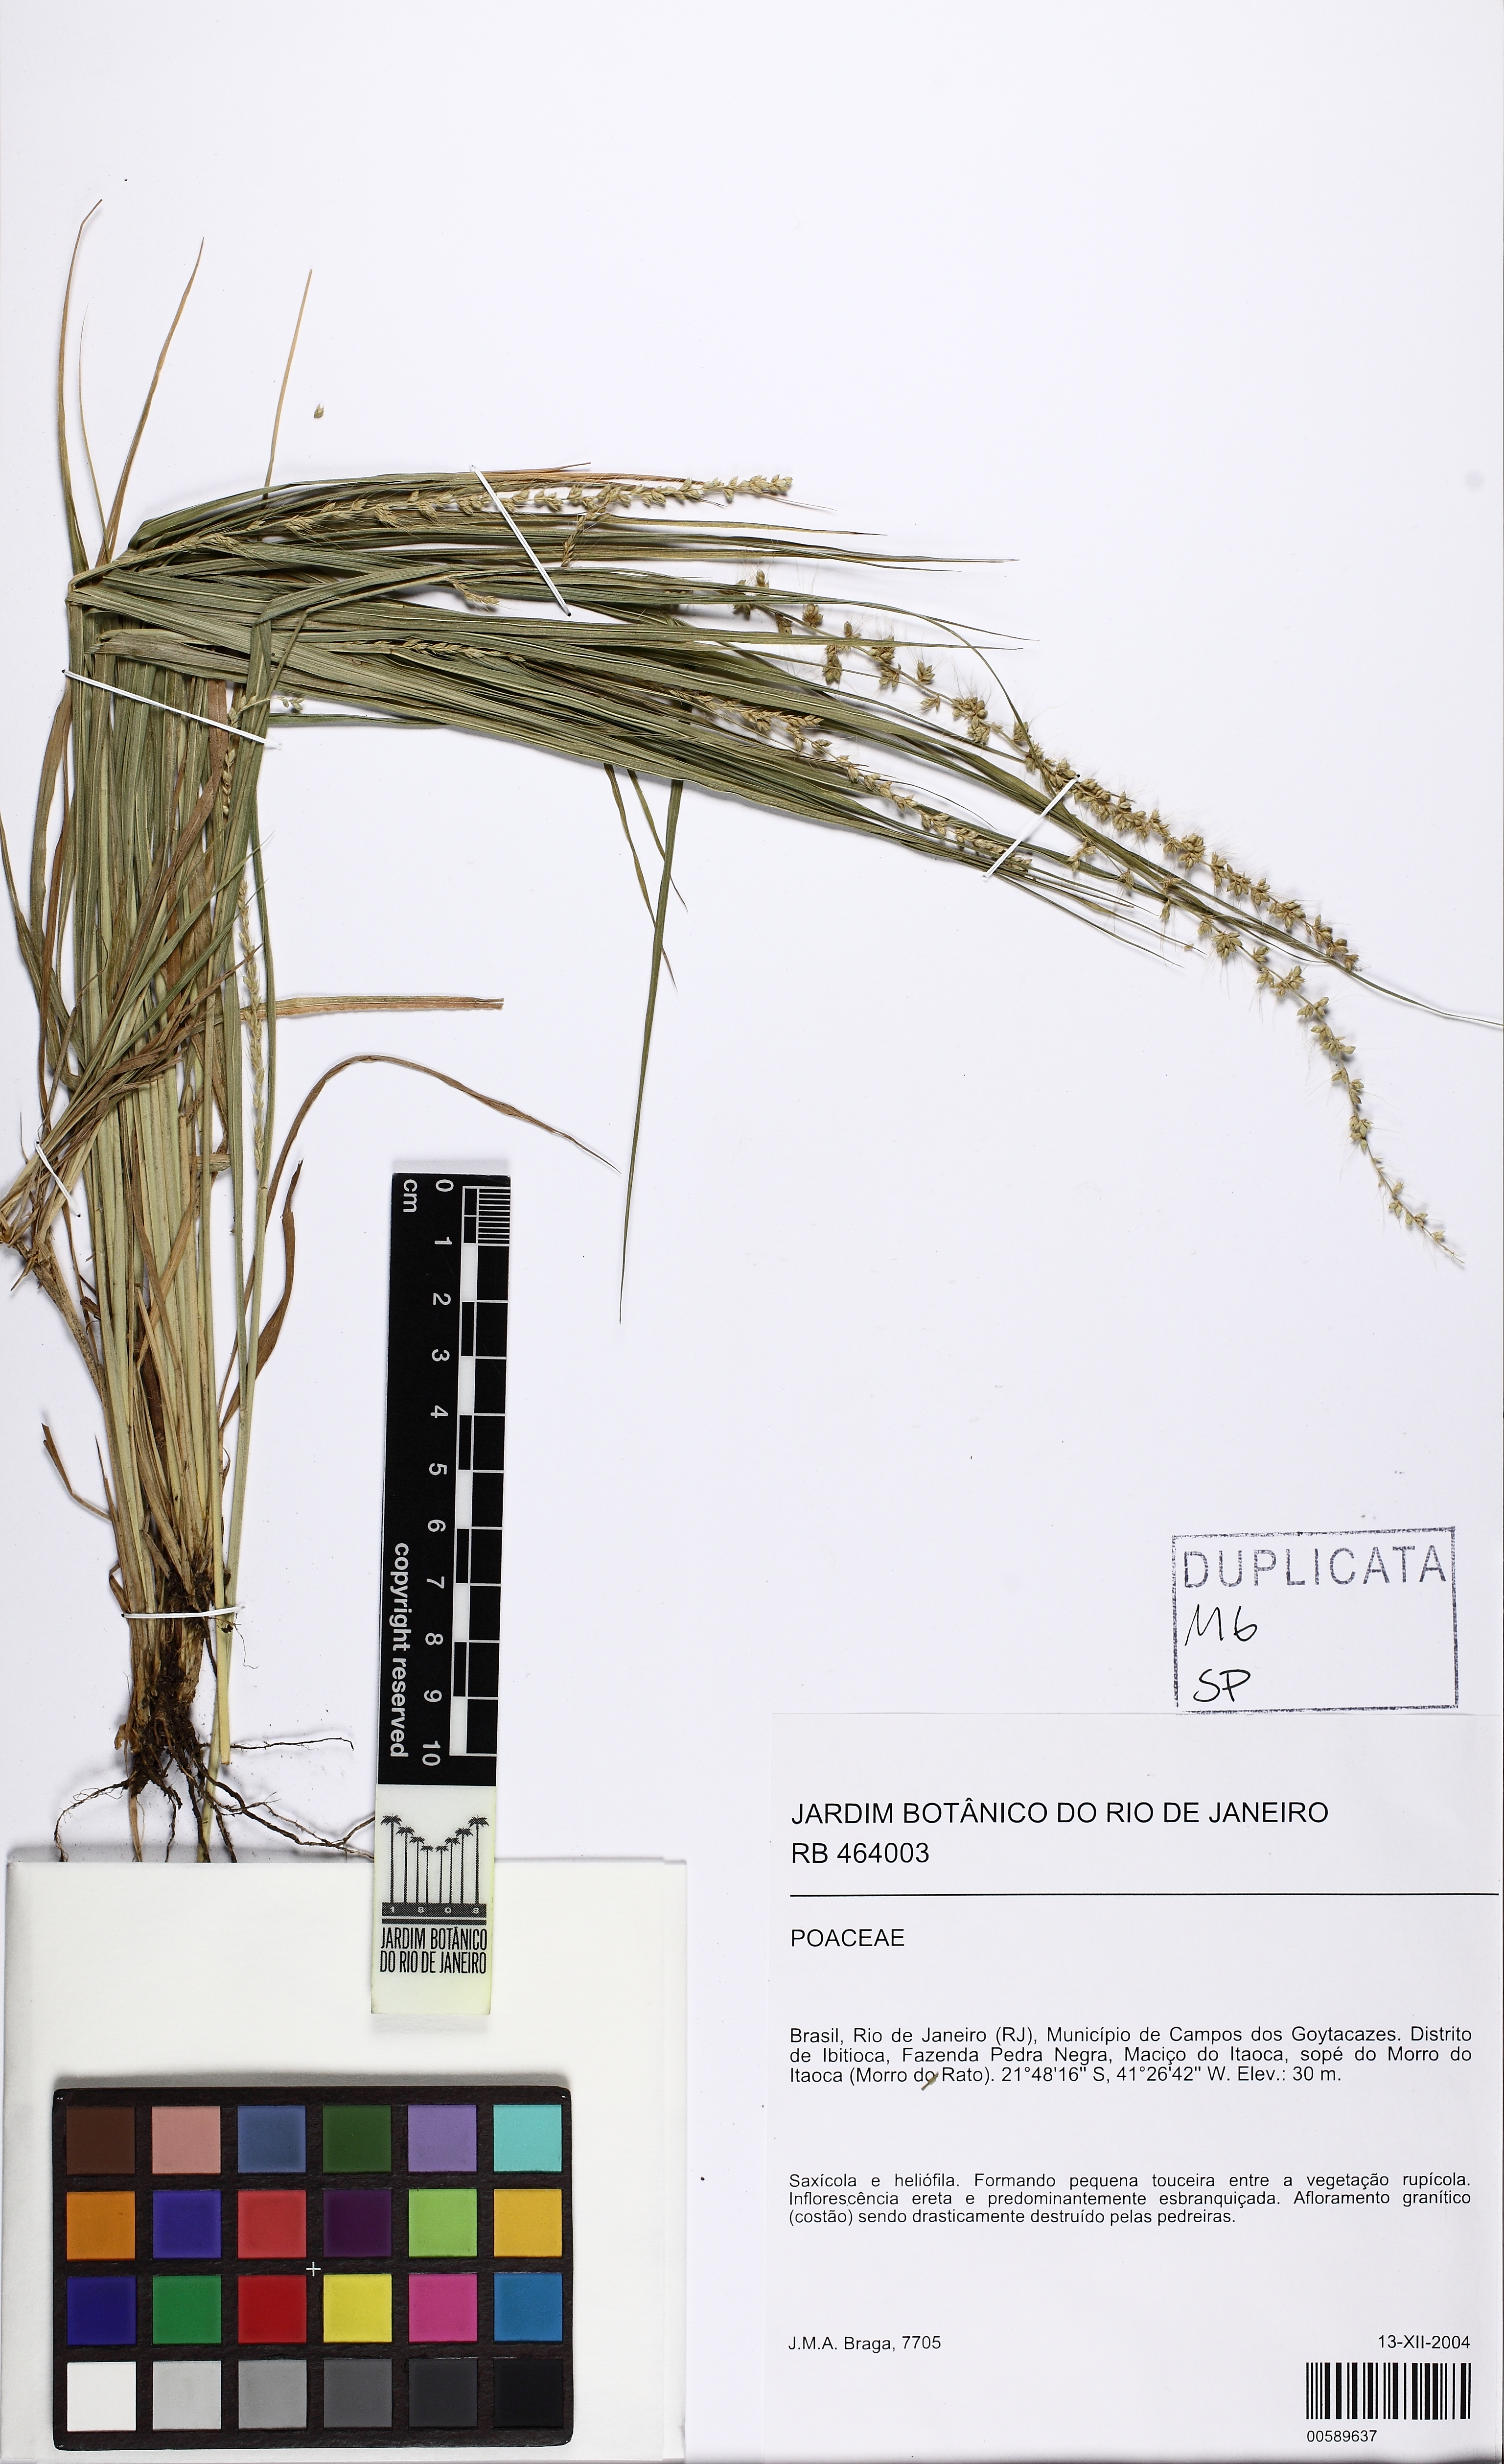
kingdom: Plantae
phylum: Tracheophyta
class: Liliopsida
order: Poales
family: Poaceae
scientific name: Poaceae
